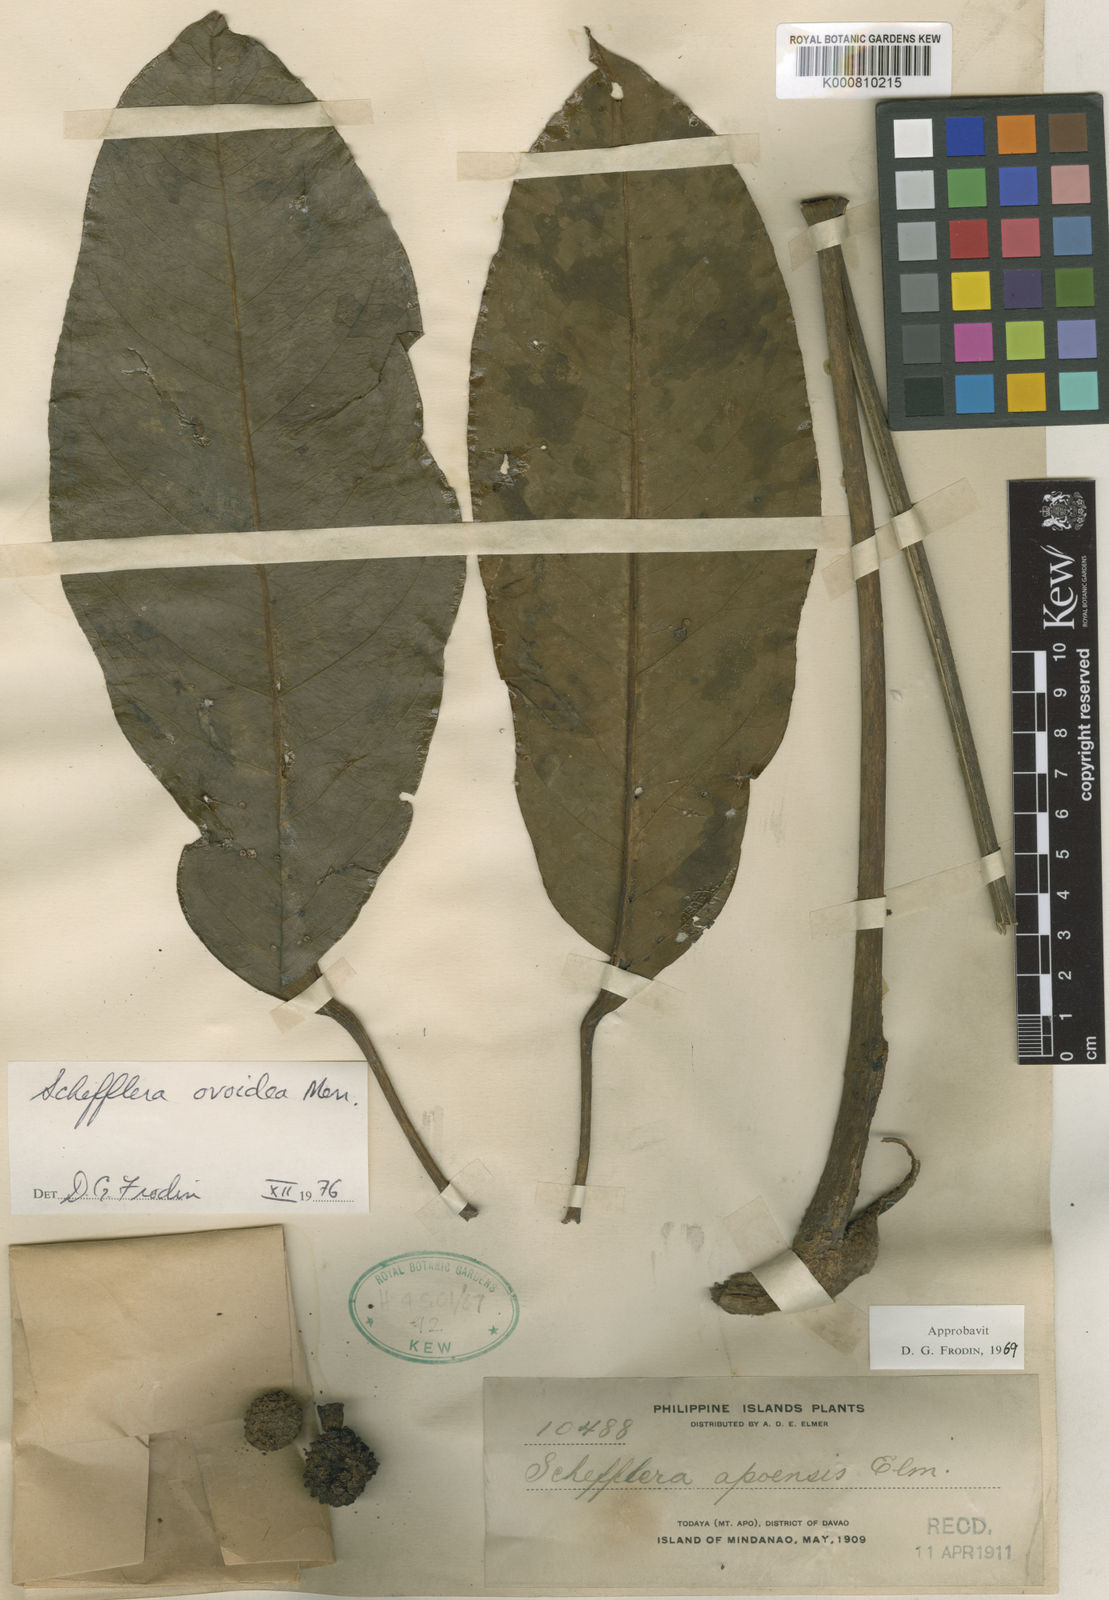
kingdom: Plantae
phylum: Tracheophyta
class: Magnoliopsida
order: Apiales
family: Araliaceae
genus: Heptapleurum
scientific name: Heptapleurum ovoideum
